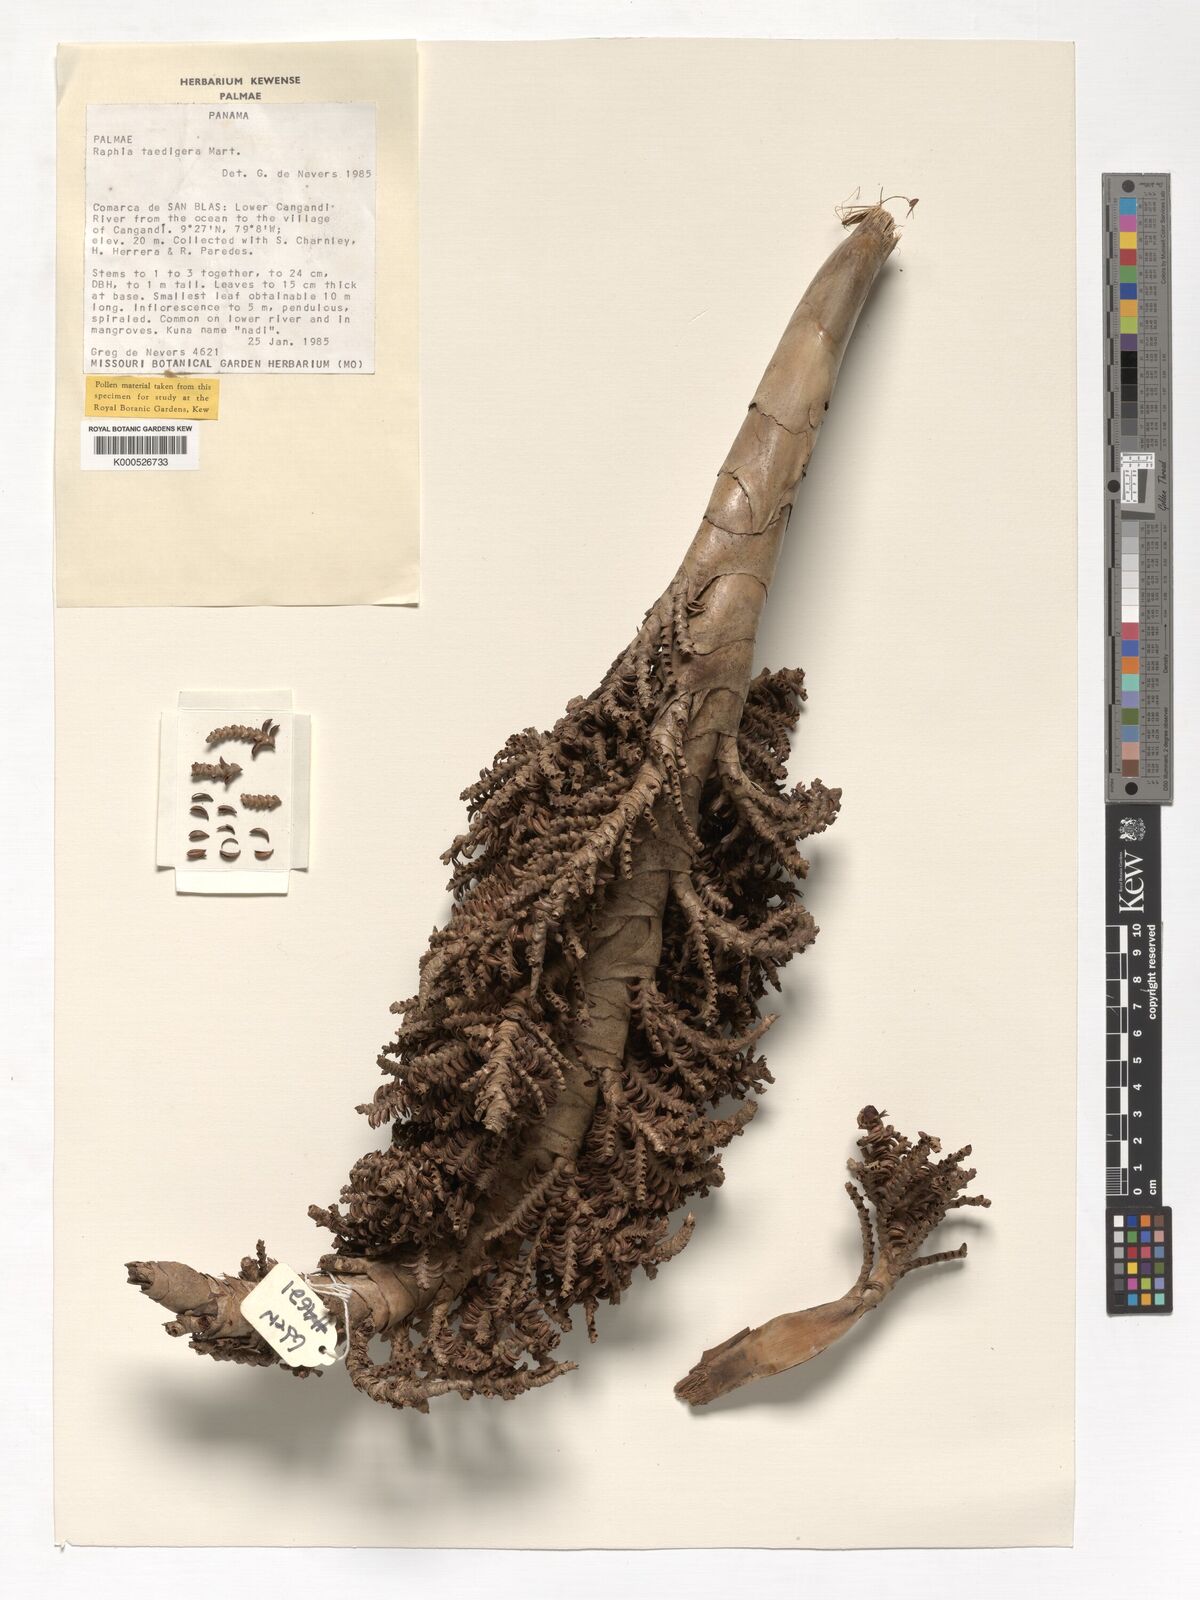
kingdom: Plantae
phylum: Tracheophyta
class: Liliopsida
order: Arecales
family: Arecaceae
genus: Raphia
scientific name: Raphia taedigera
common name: Pinecone palm
